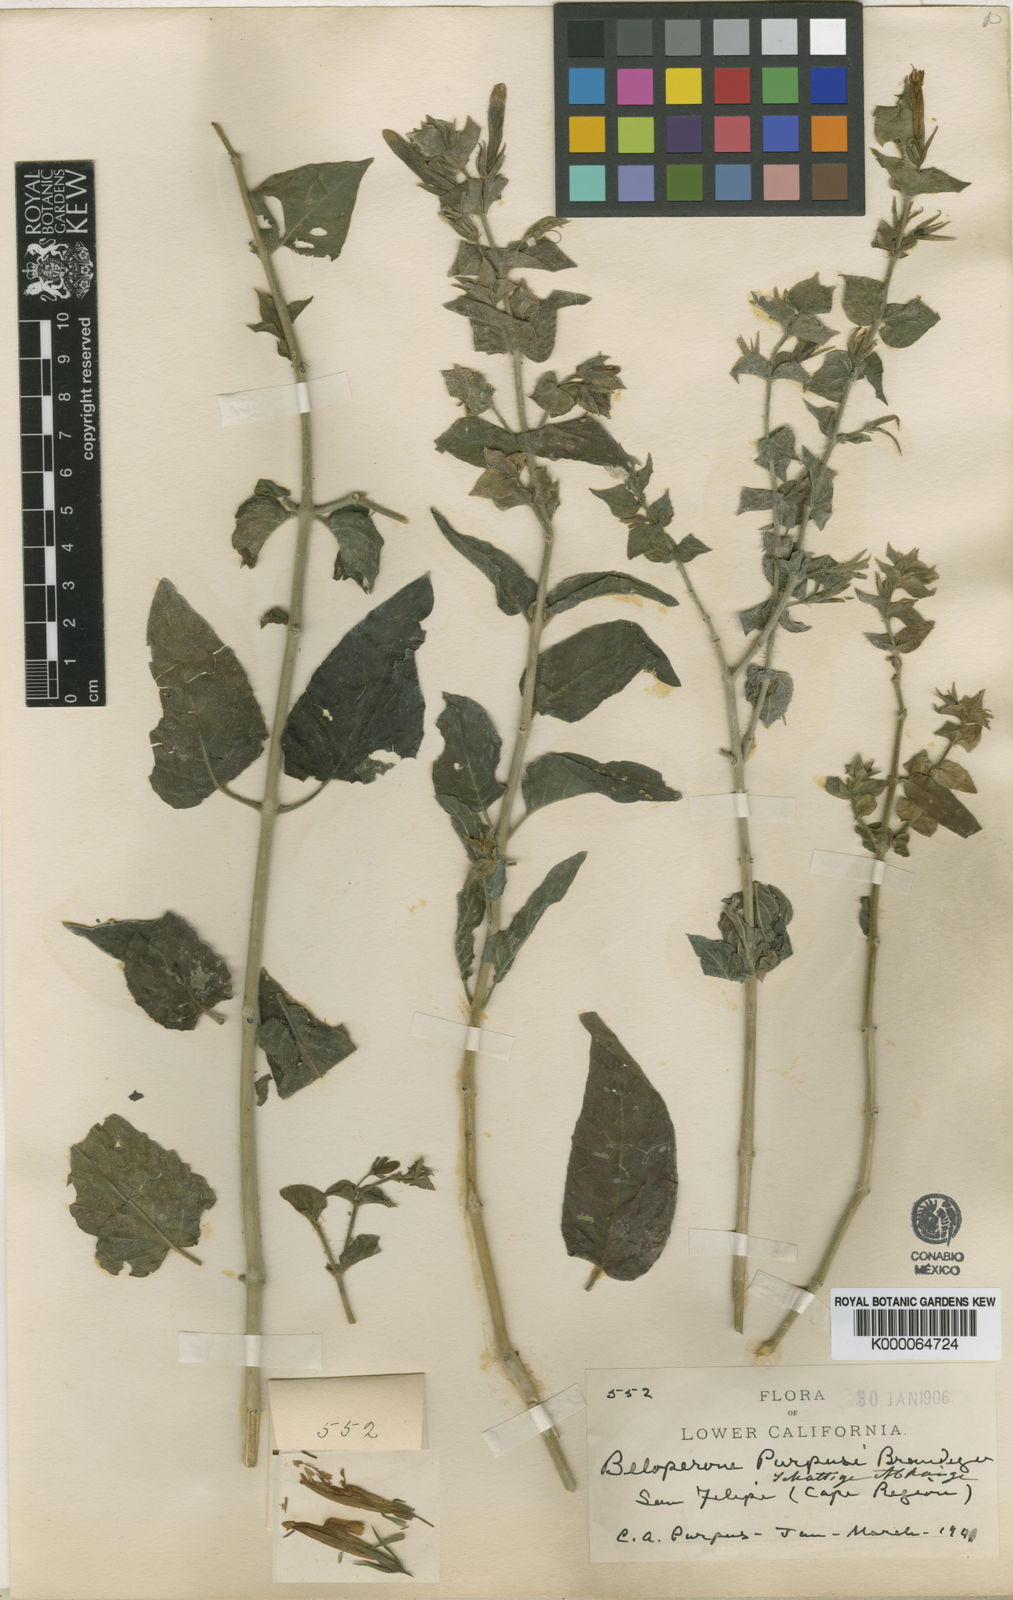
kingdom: Plantae
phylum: Tracheophyta
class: Magnoliopsida
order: Lamiales
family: Acanthaceae
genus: Justicia
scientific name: Justicia purpusii
